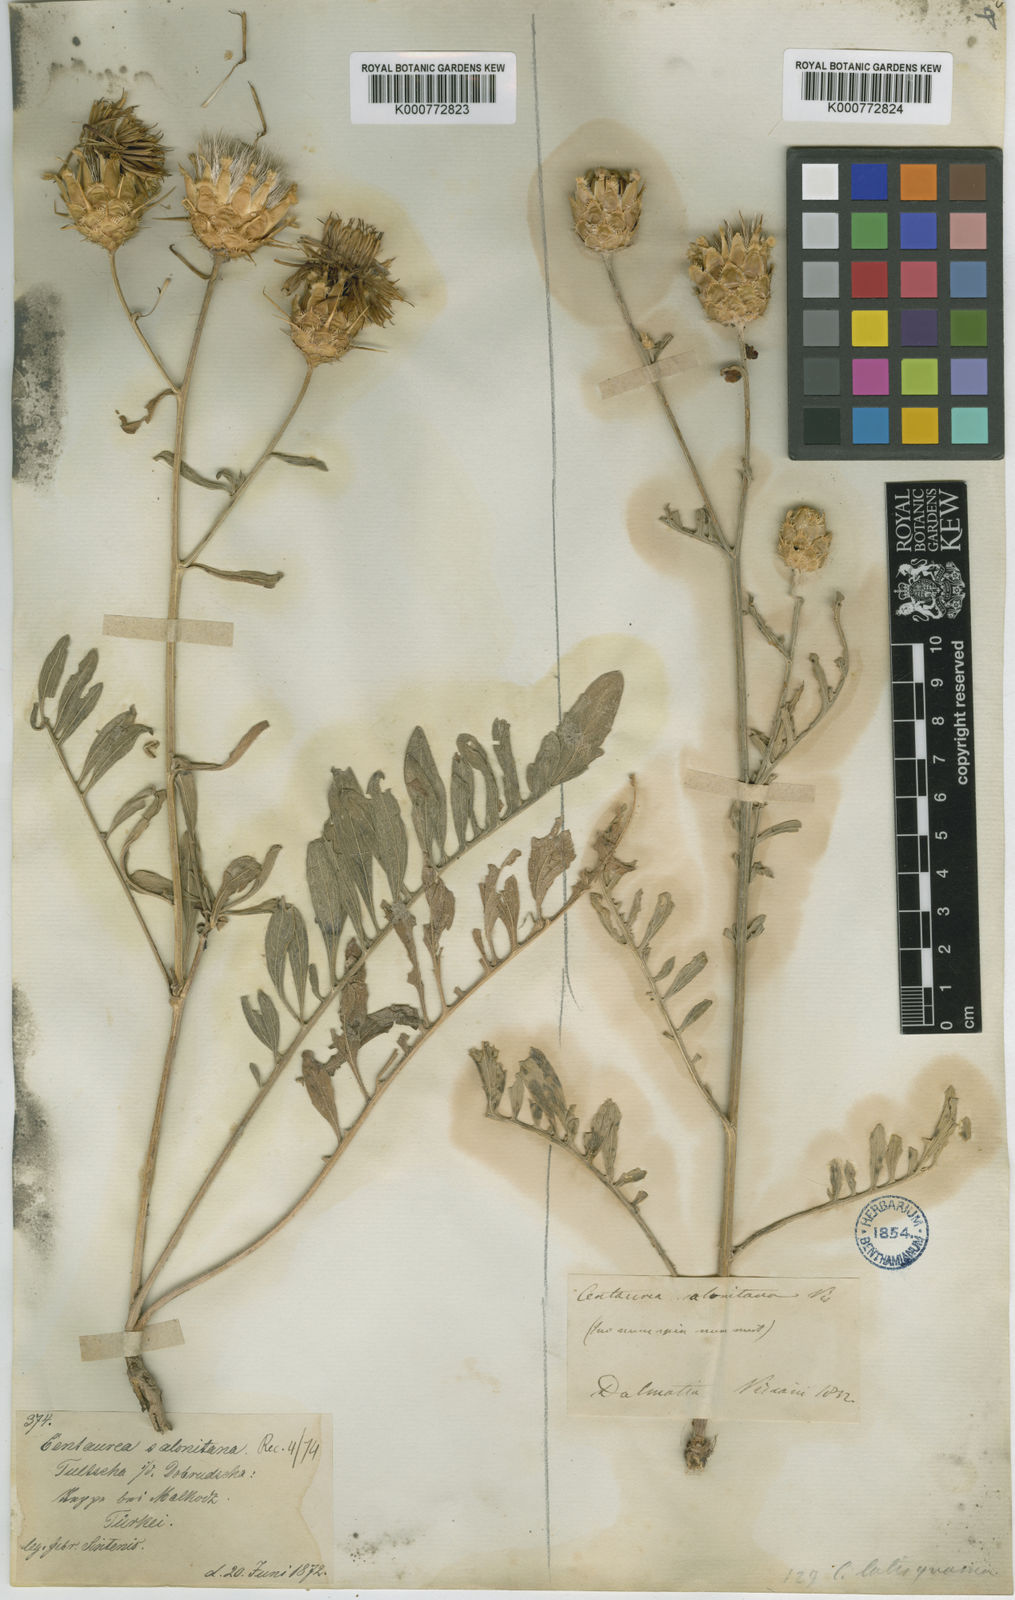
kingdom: Plantae
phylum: Tracheophyta
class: Magnoliopsida
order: Asterales
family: Asteraceae
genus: Centaurea
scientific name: Centaurea salonitana
